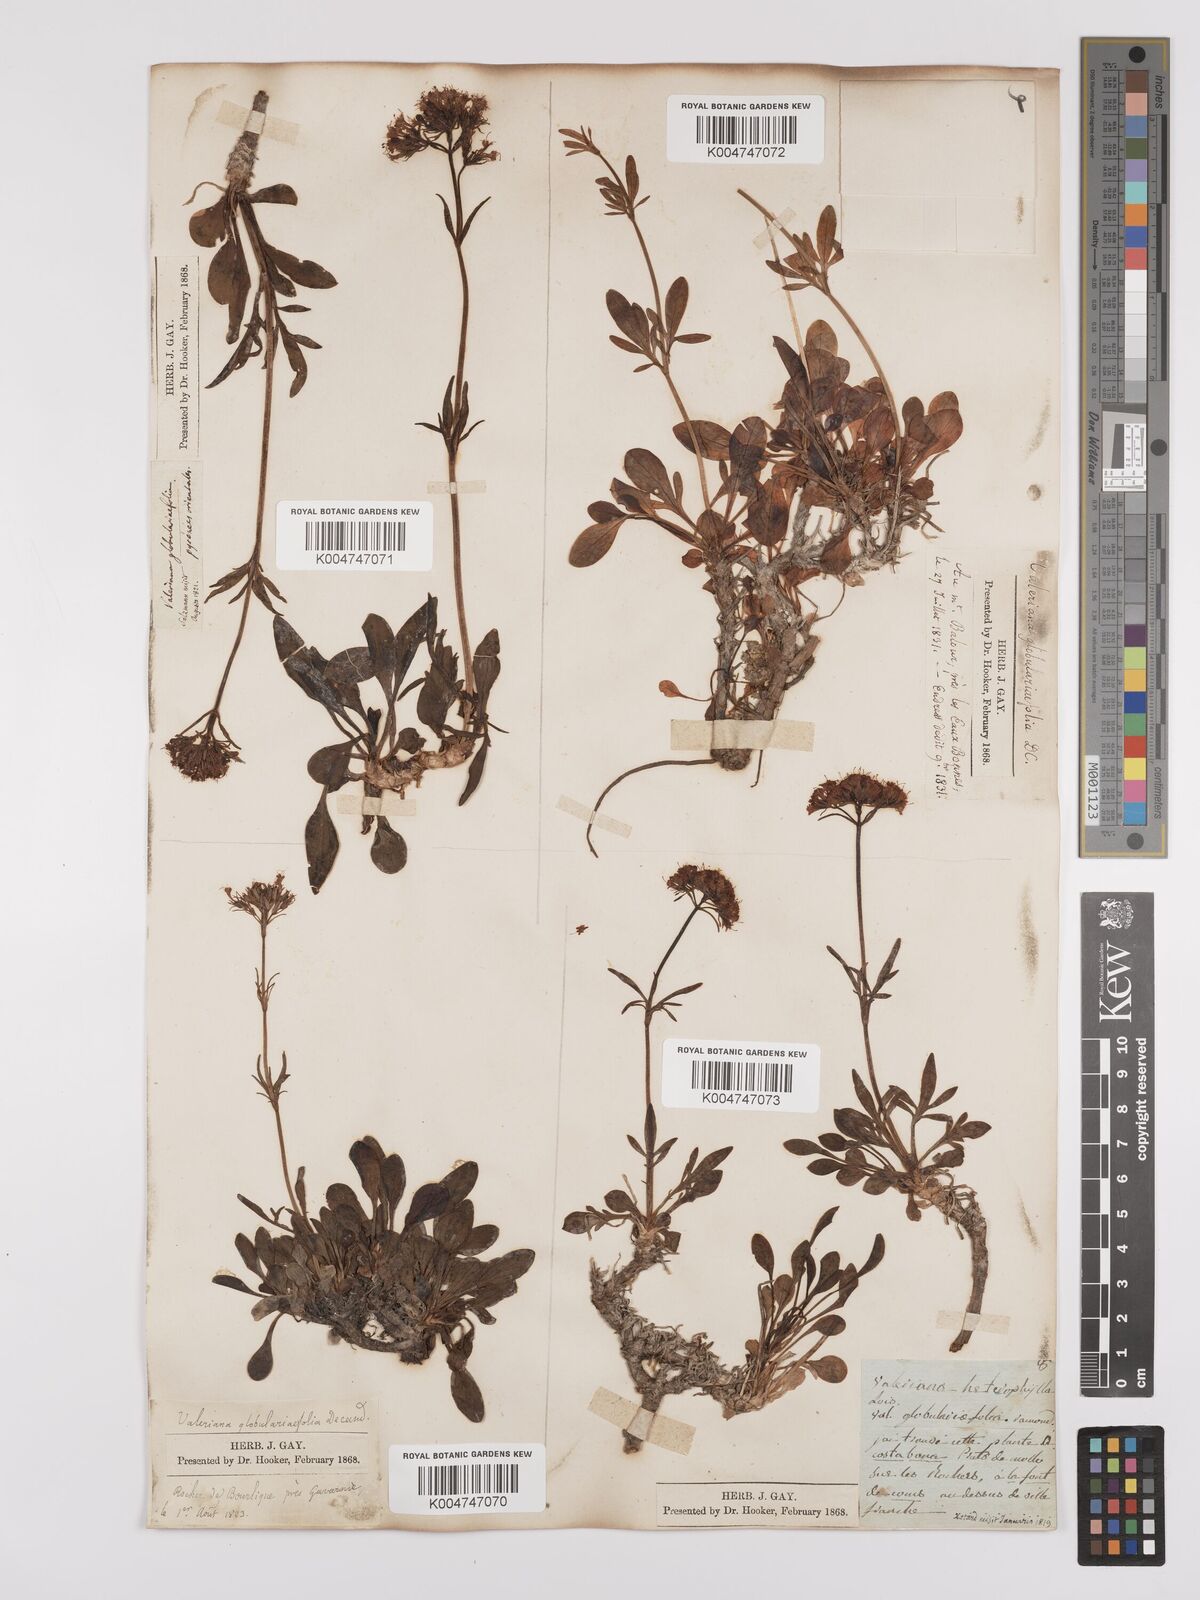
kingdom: Plantae
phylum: Tracheophyta
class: Magnoliopsida
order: Dipsacales
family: Caprifoliaceae
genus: Valeriana
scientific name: Valeriana apula
